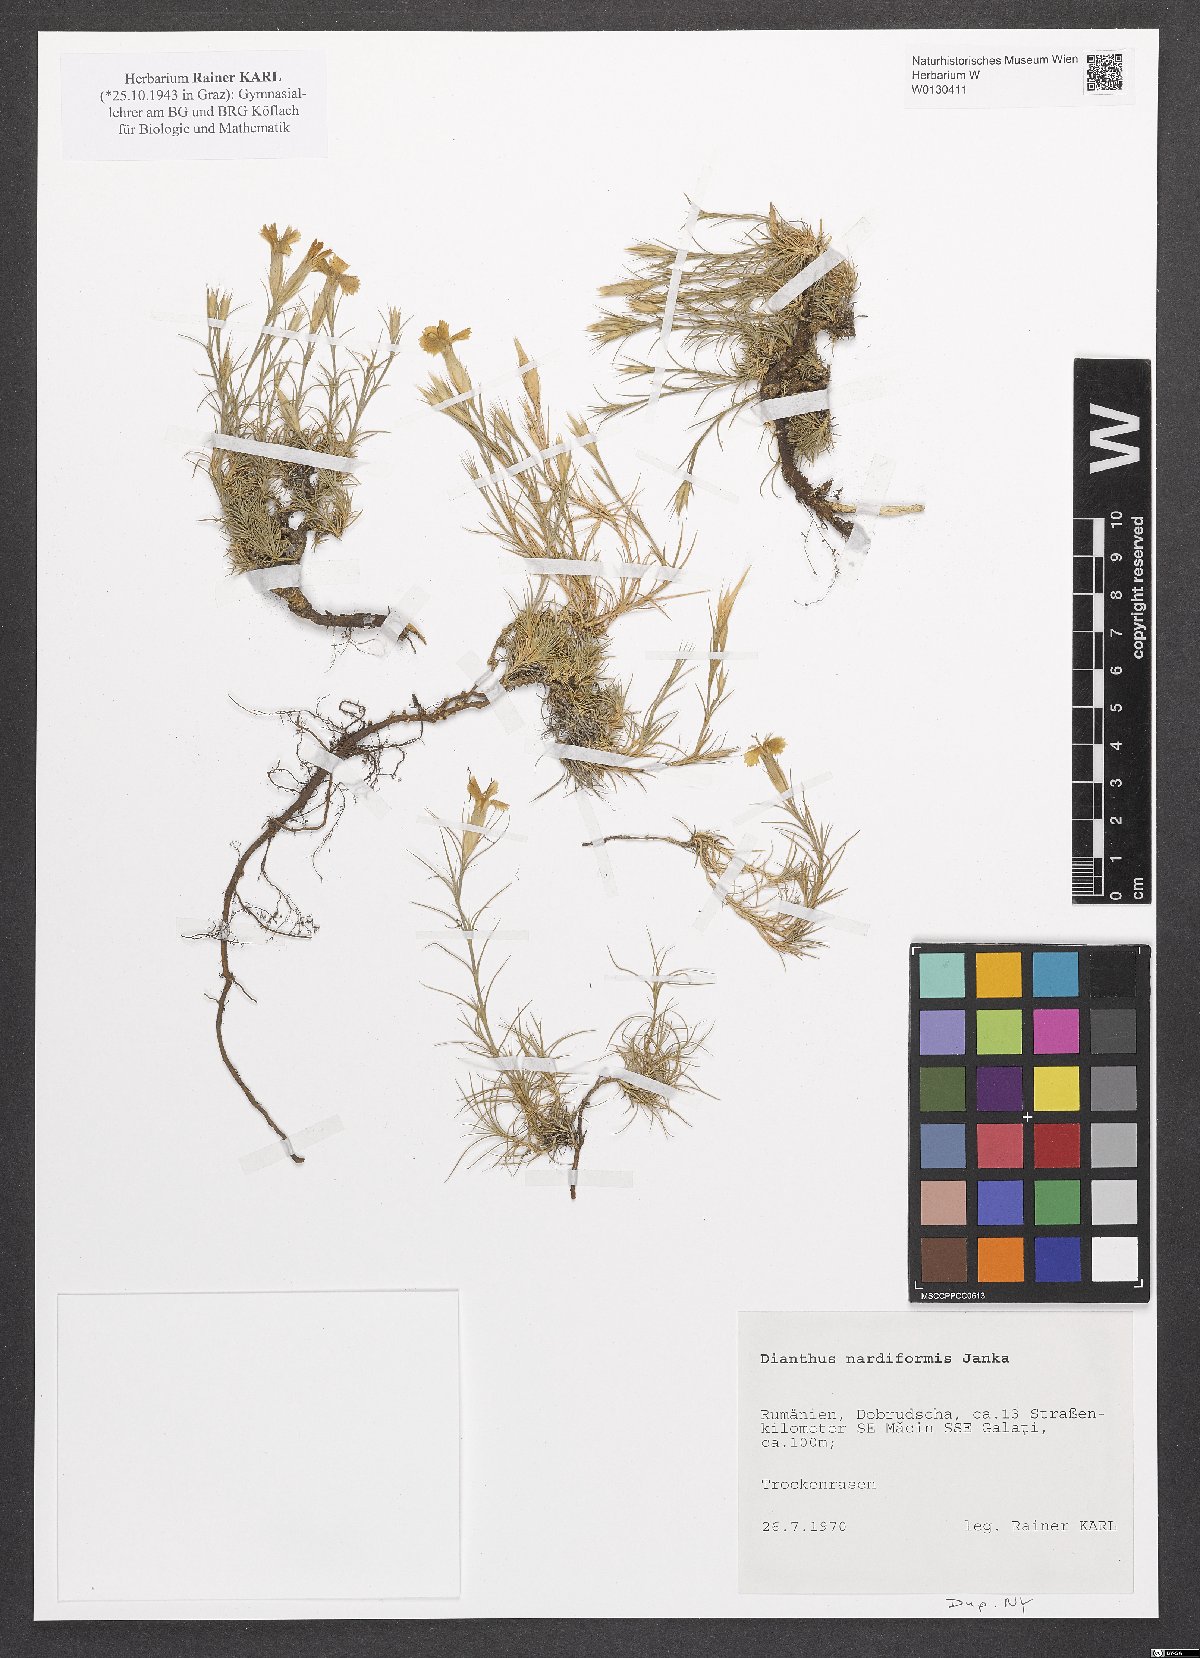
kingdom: Plantae
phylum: Tracheophyta
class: Magnoliopsida
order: Caryophyllales
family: Caryophyllaceae
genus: Dianthus
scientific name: Dianthus nardiformis
